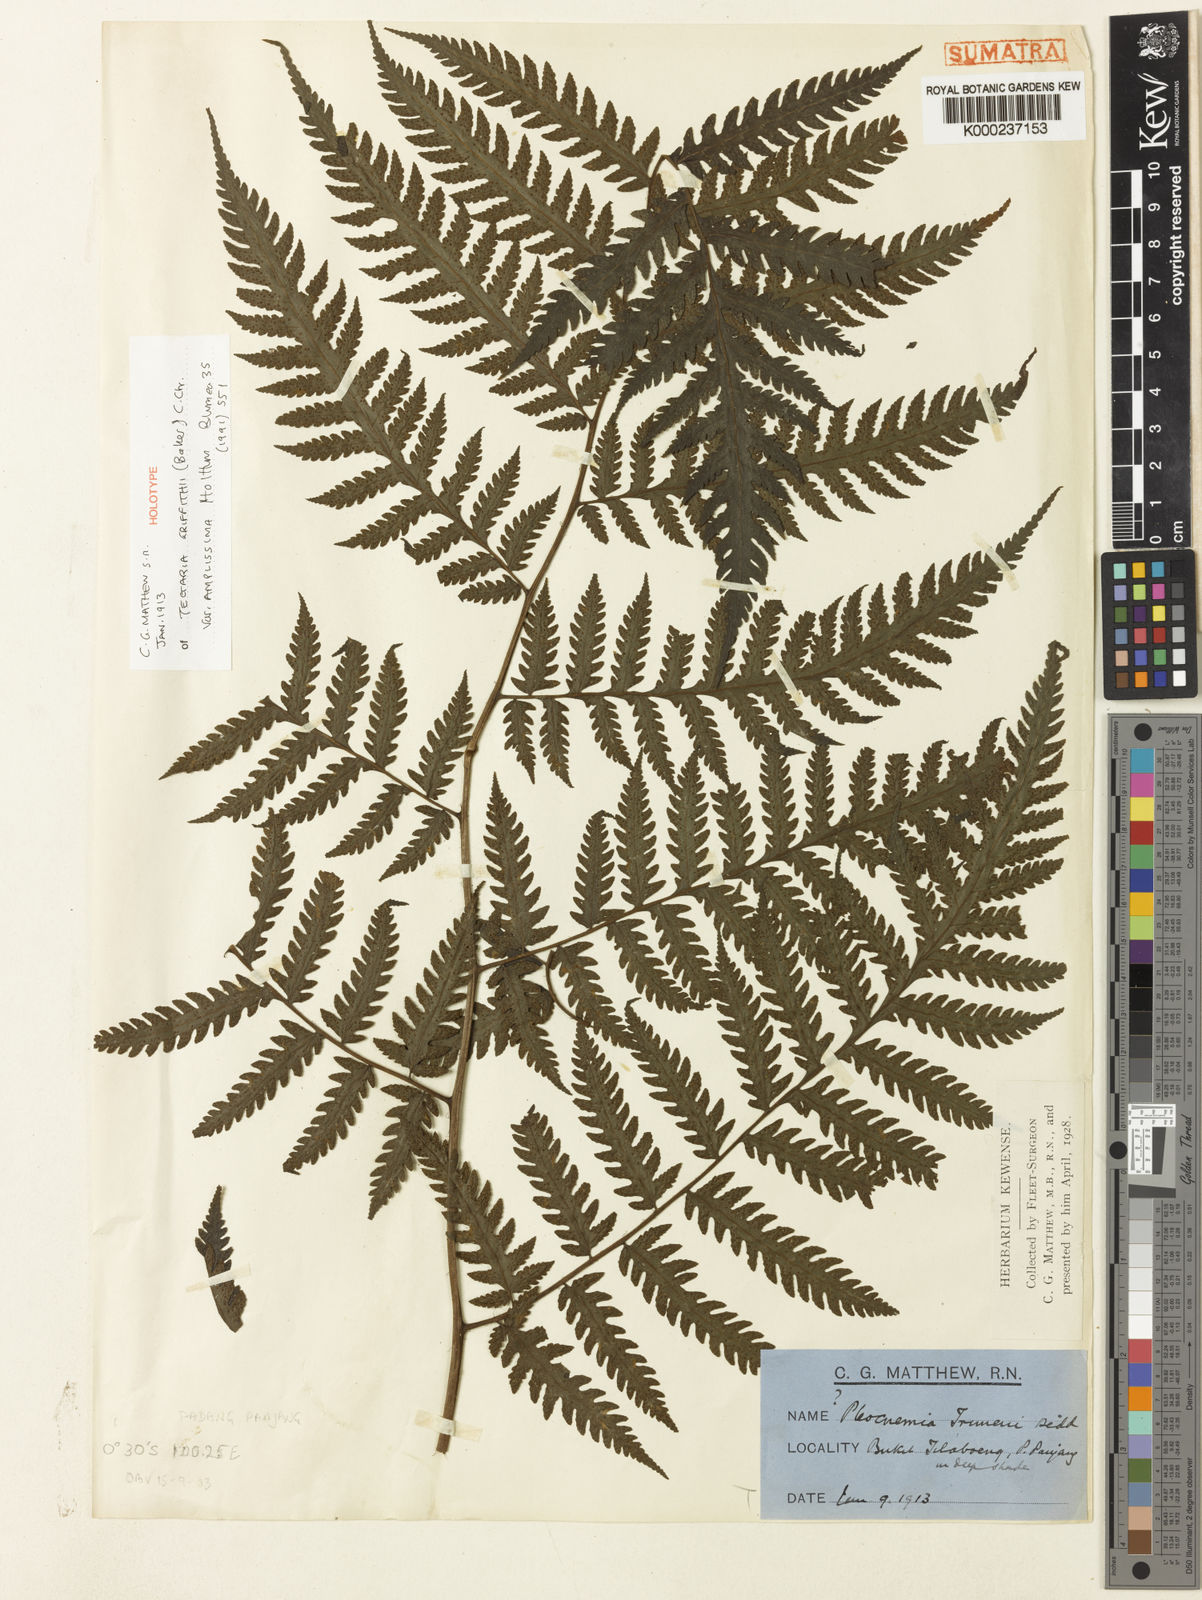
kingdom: Plantae
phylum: Tracheophyta
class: Polypodiopsida
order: Polypodiales
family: Tectariaceae
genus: Tectaria
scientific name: Tectaria multicaudata
